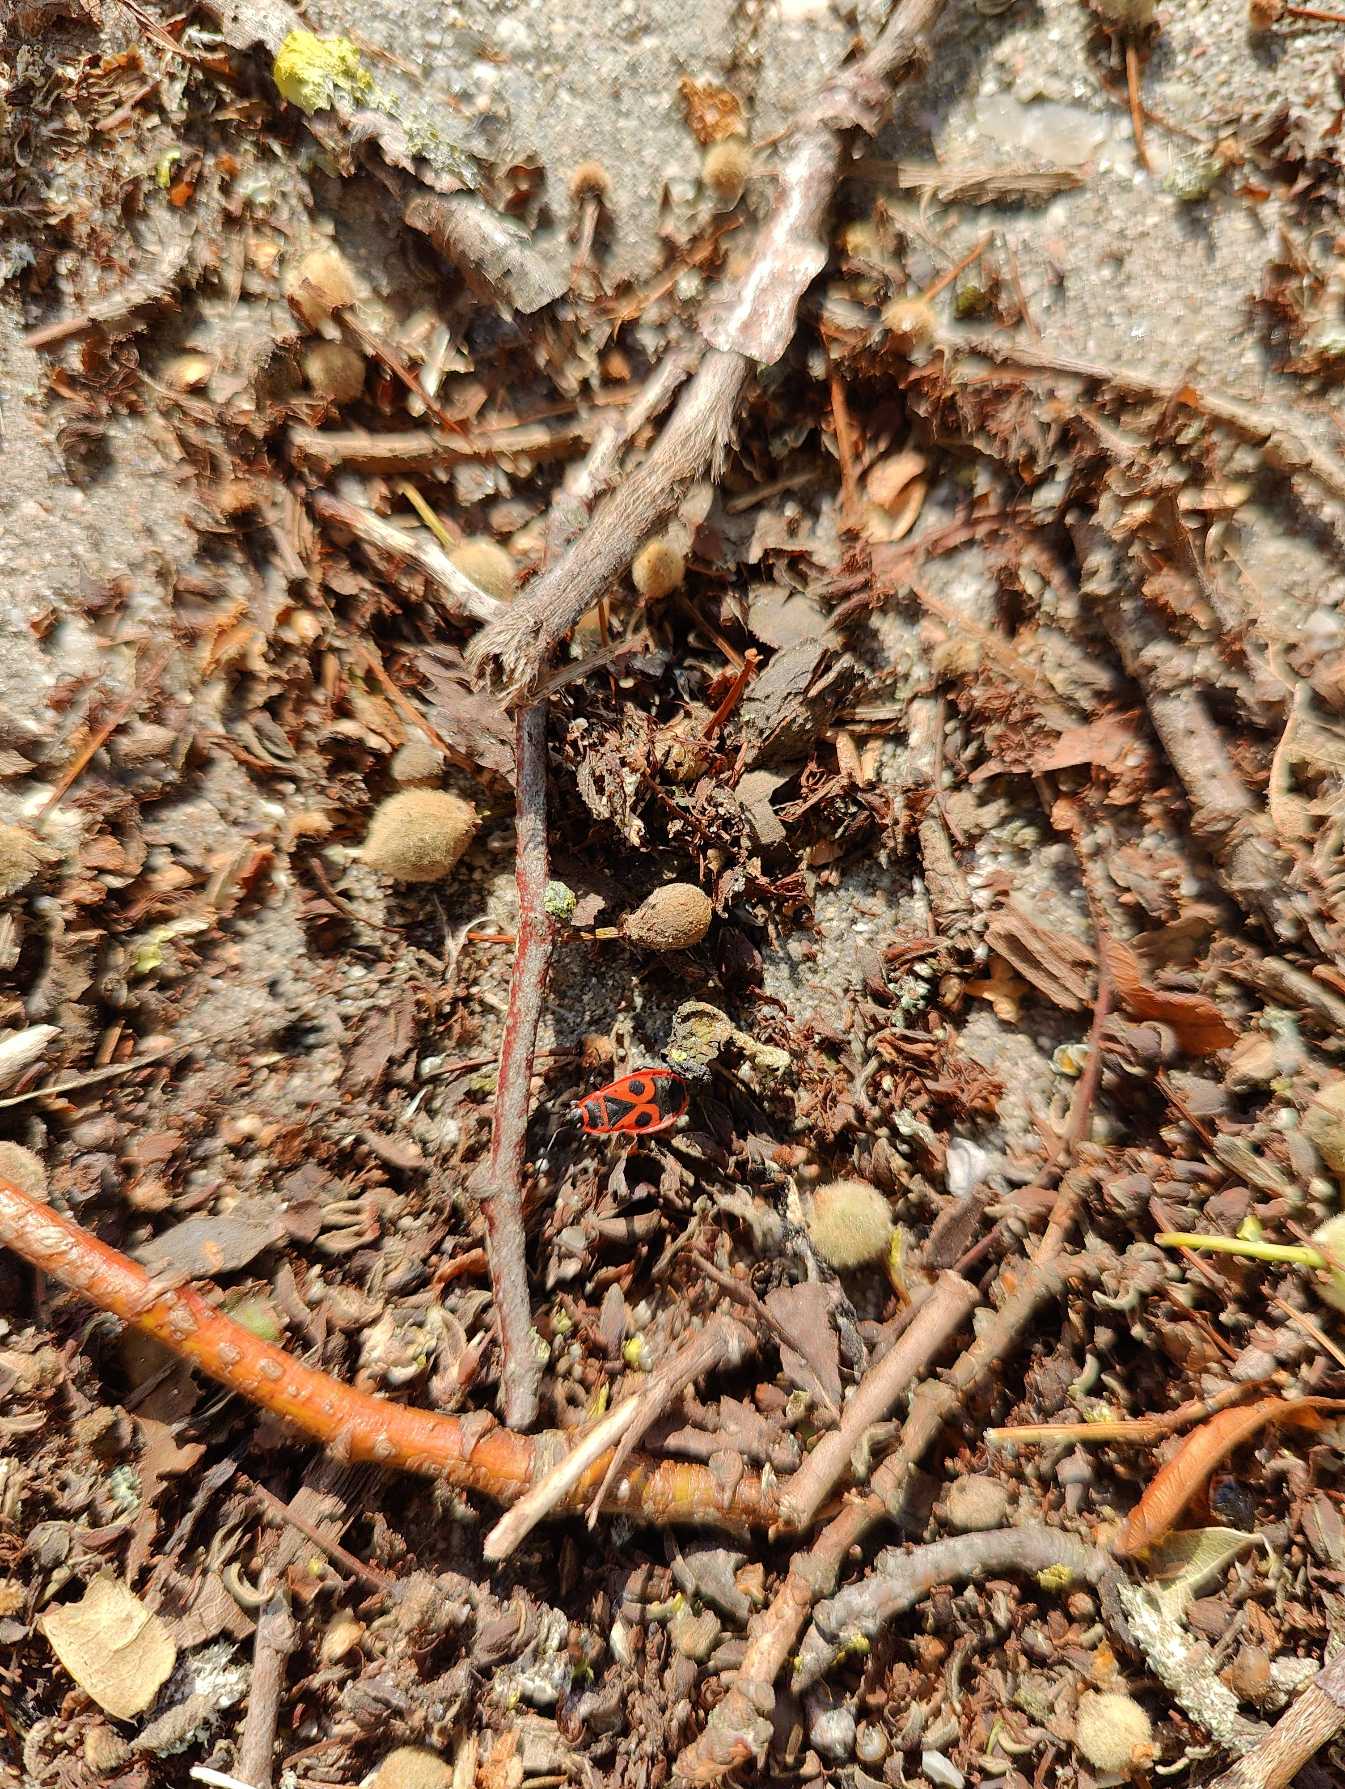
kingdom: Animalia
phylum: Arthropoda
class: Insecta
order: Hemiptera
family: Pyrrhocoridae
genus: Pyrrhocoris
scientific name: Pyrrhocoris apterus
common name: Ildtæge
